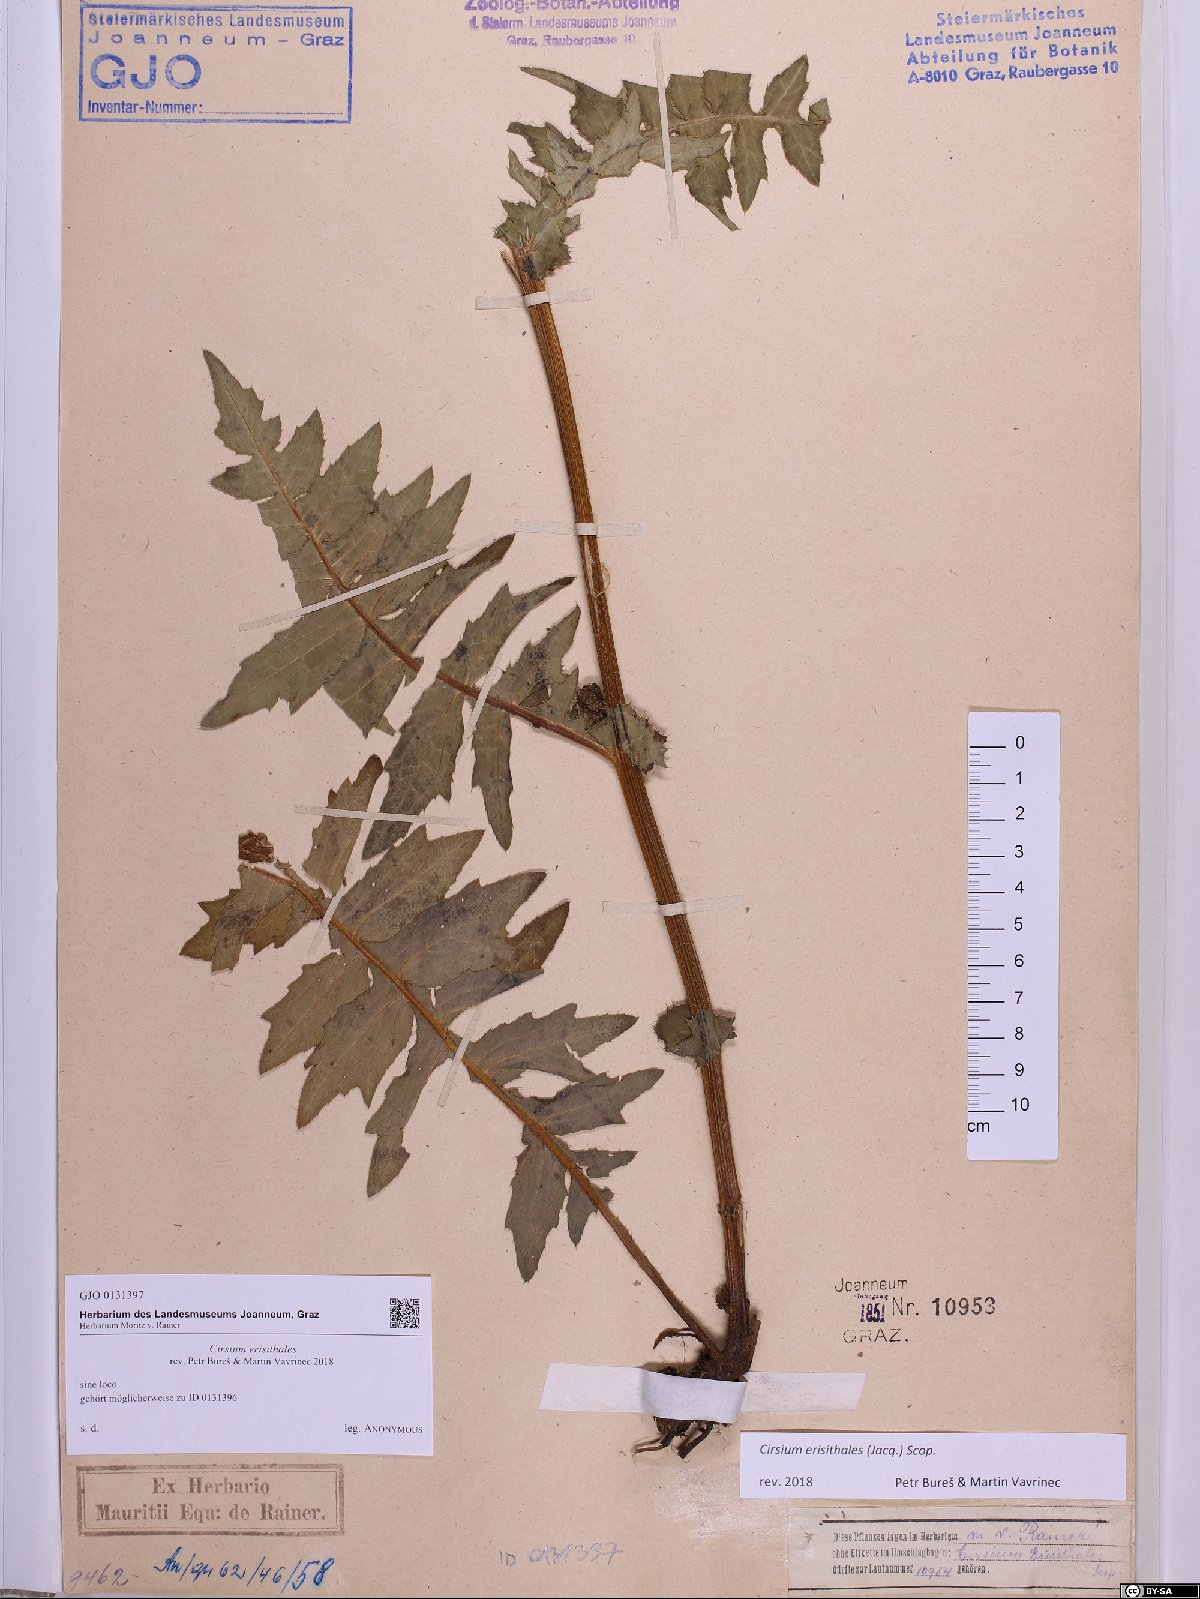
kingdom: Plantae
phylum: Tracheophyta
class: Magnoliopsida
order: Asterales
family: Asteraceae
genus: Cirsium
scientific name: Cirsium erisithales
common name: Yellow thistle
